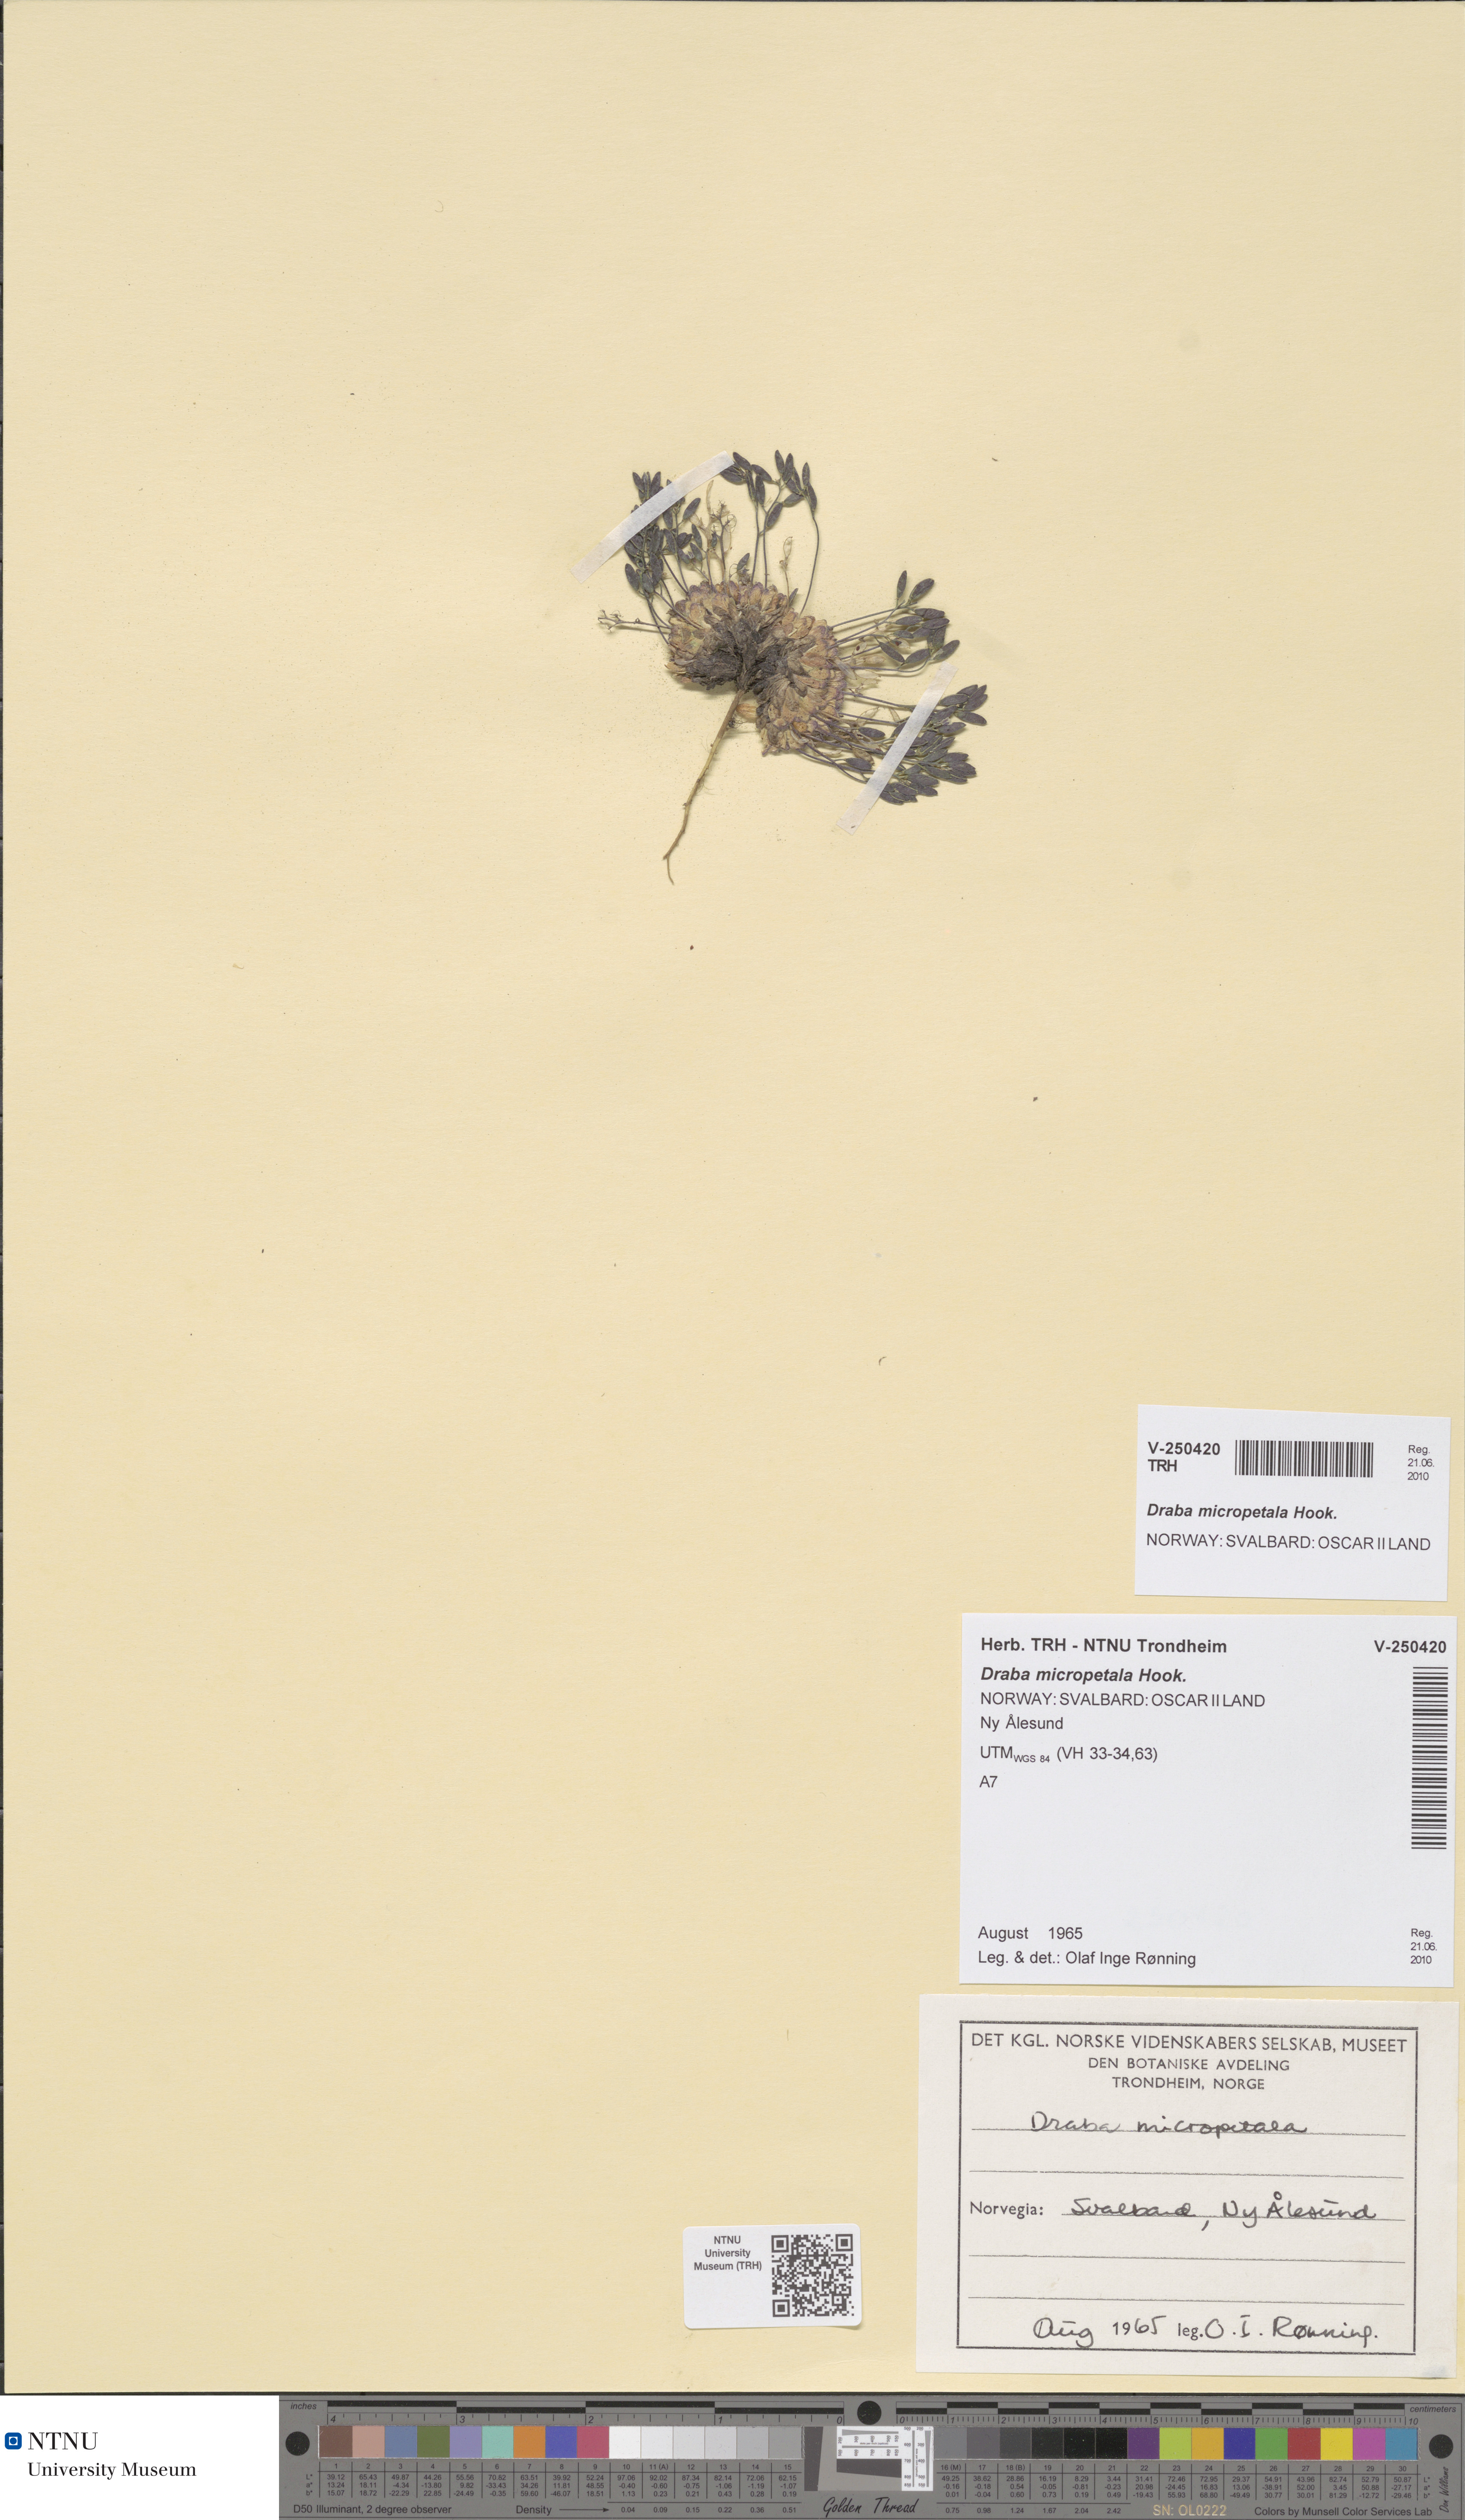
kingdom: Plantae
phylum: Tracheophyta
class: Magnoliopsida
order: Brassicales
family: Brassicaceae
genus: Draba
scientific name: Draba micropetala
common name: Small-flowered draba
